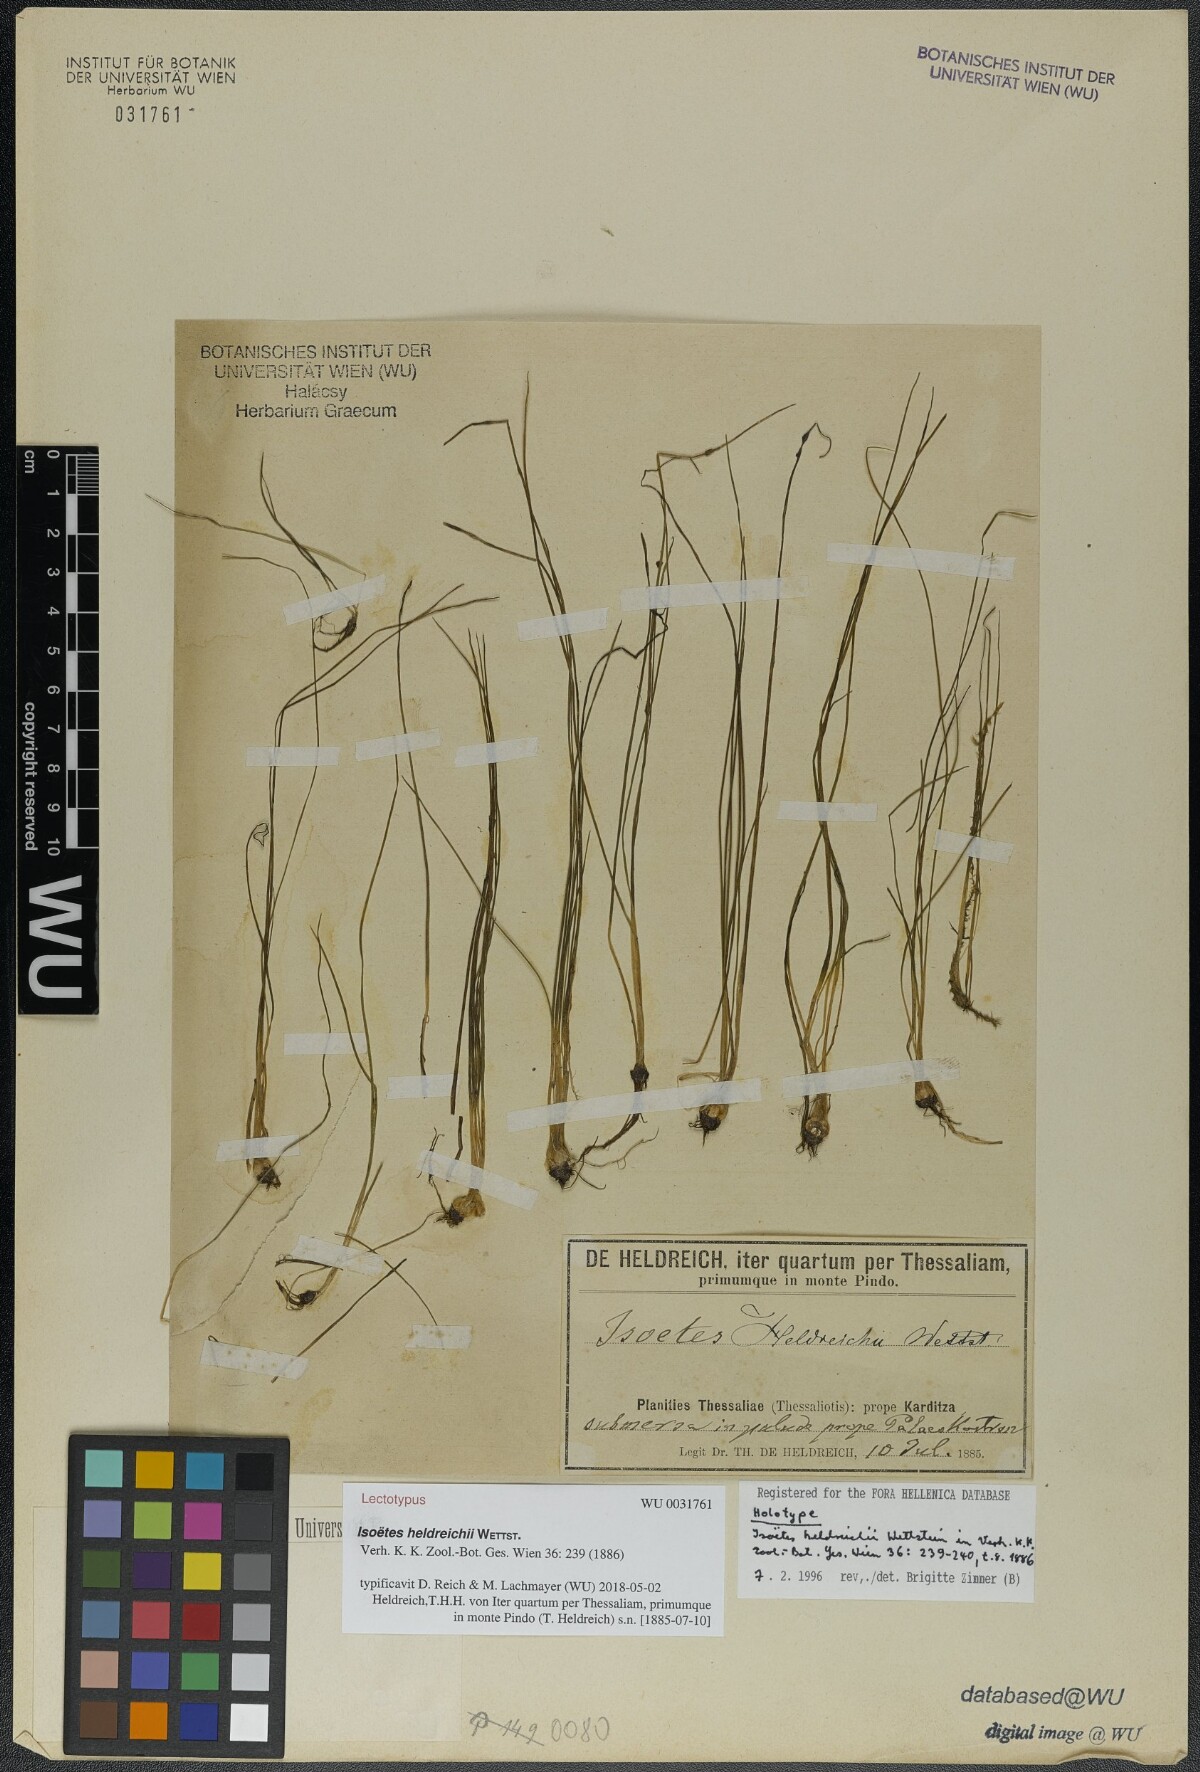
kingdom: Plantae
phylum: Tracheophyta
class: Lycopodiopsida
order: Isoetales
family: Isoetaceae
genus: Isoetes
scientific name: Isoetes heldreichii
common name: Pindus quillwort
